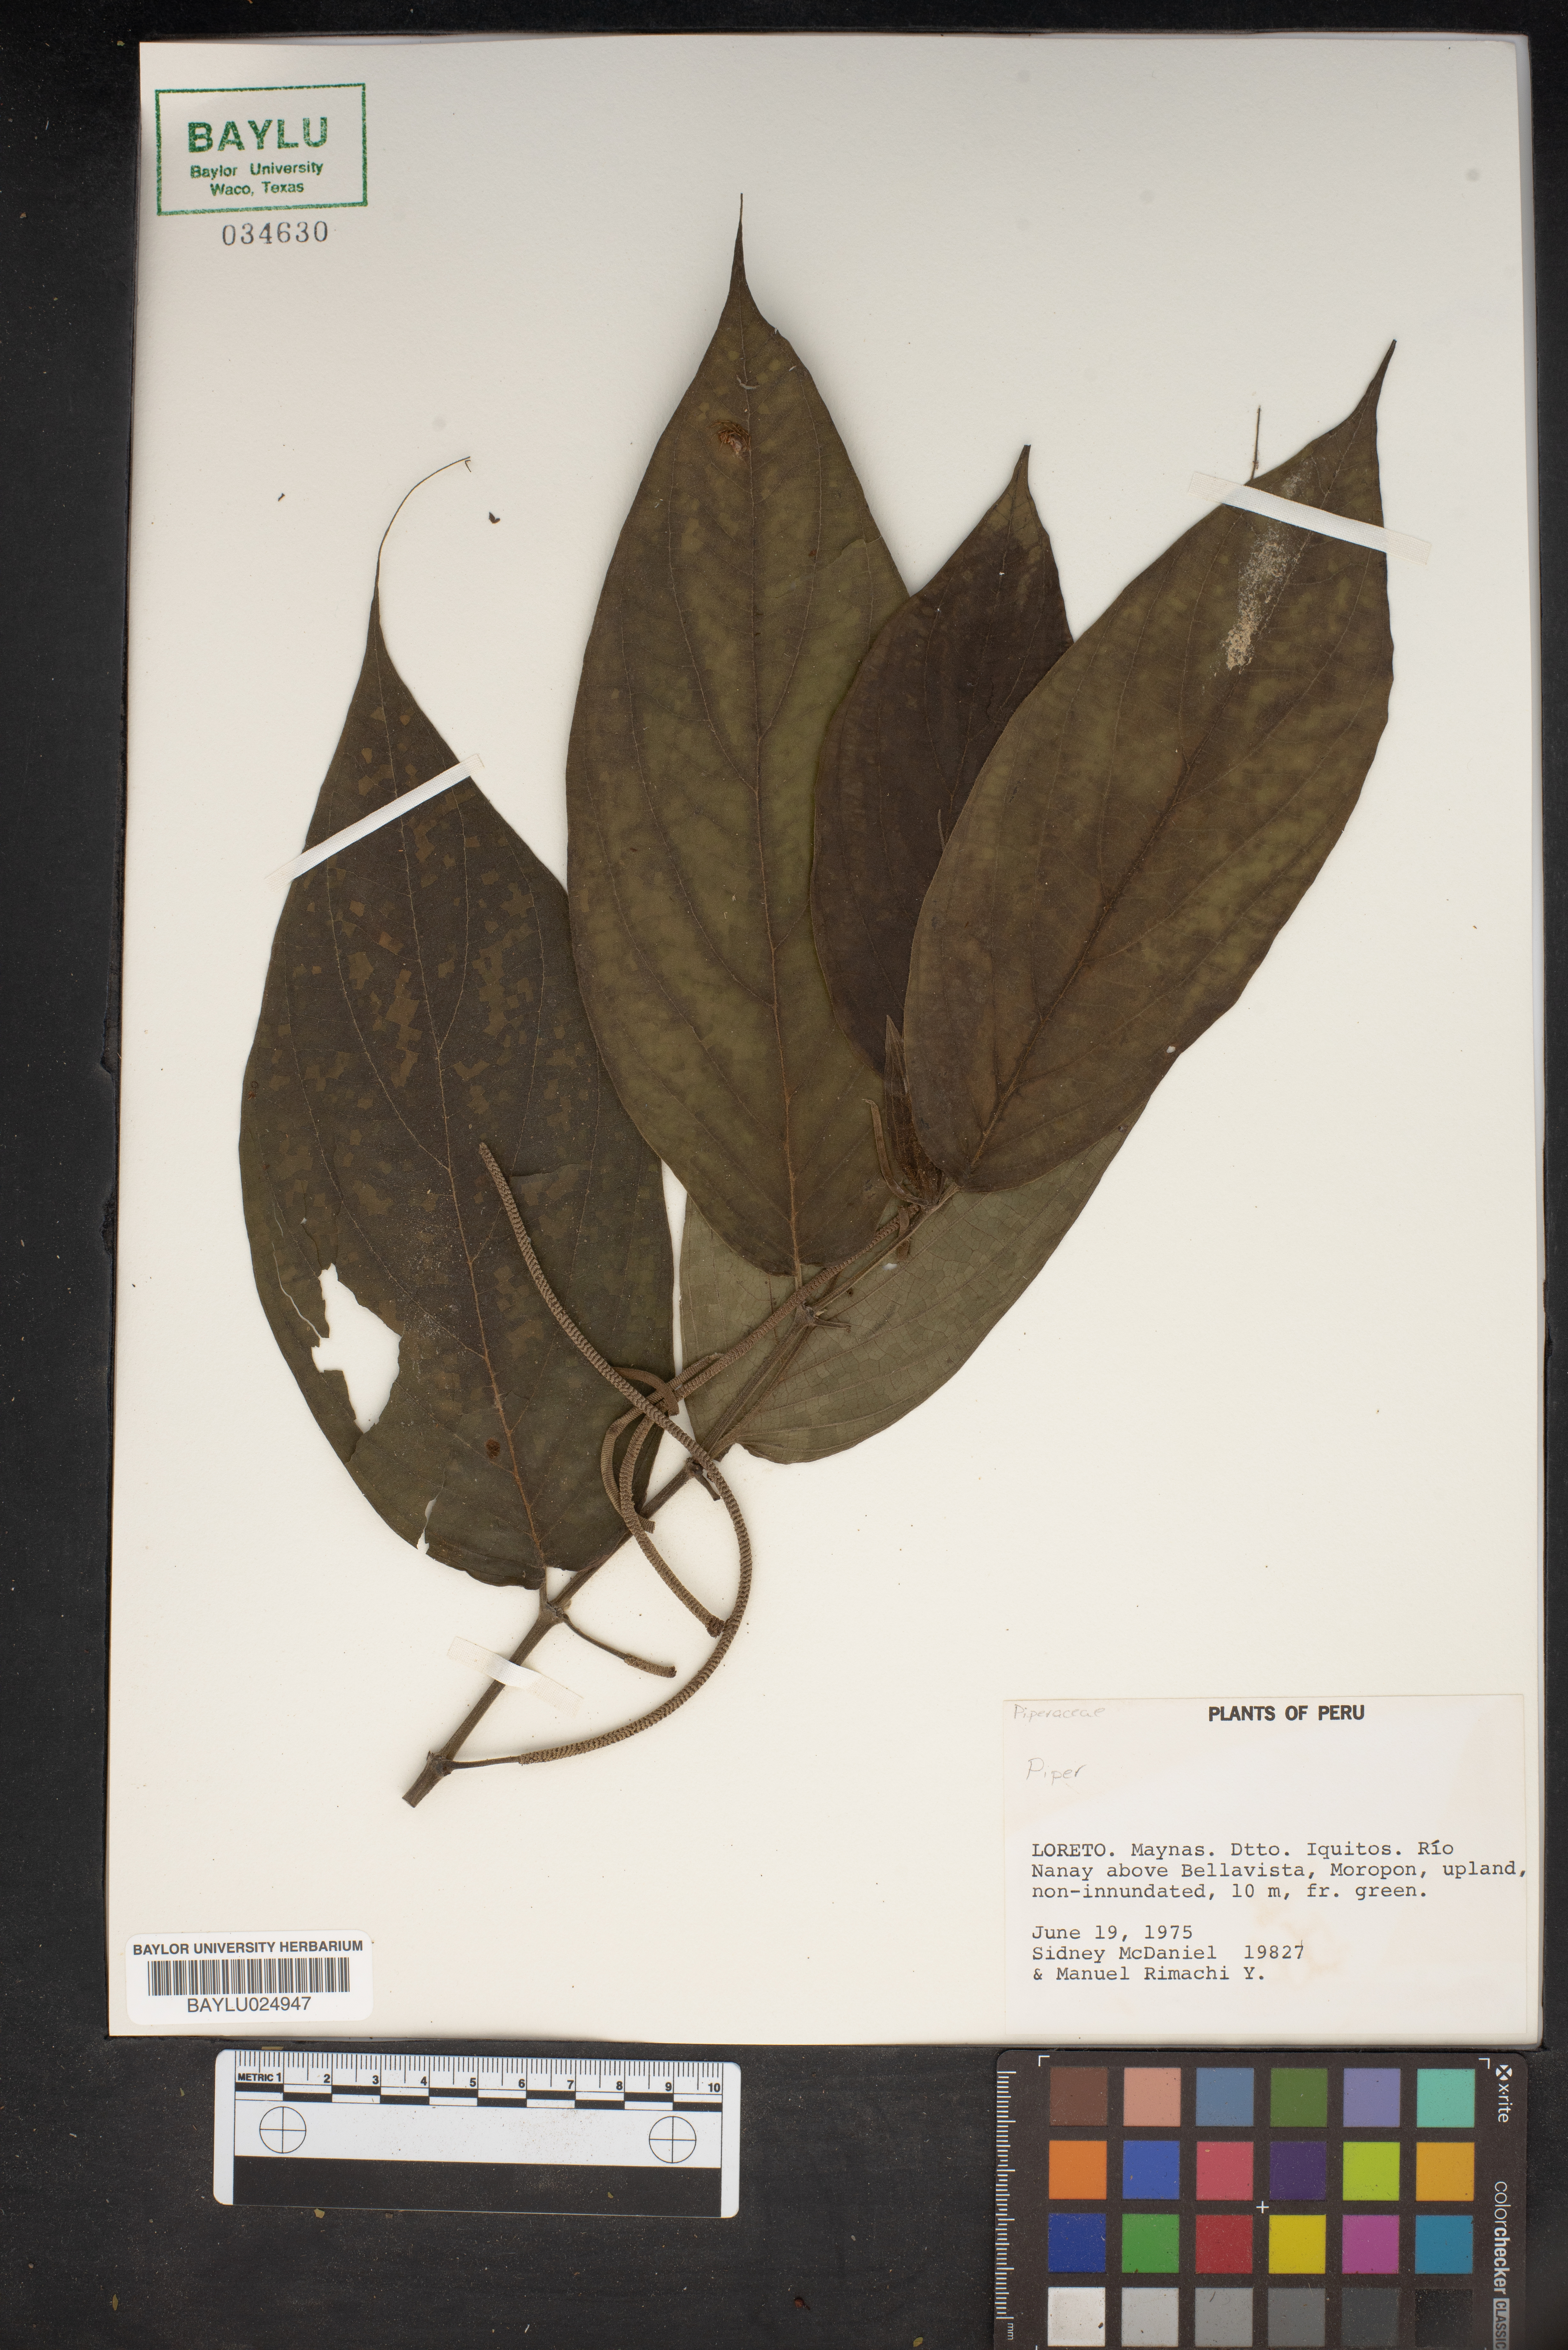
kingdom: Plantae
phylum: Tracheophyta
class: Magnoliopsida
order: Piperales
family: Piperaceae
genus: Piper
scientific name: Piper
